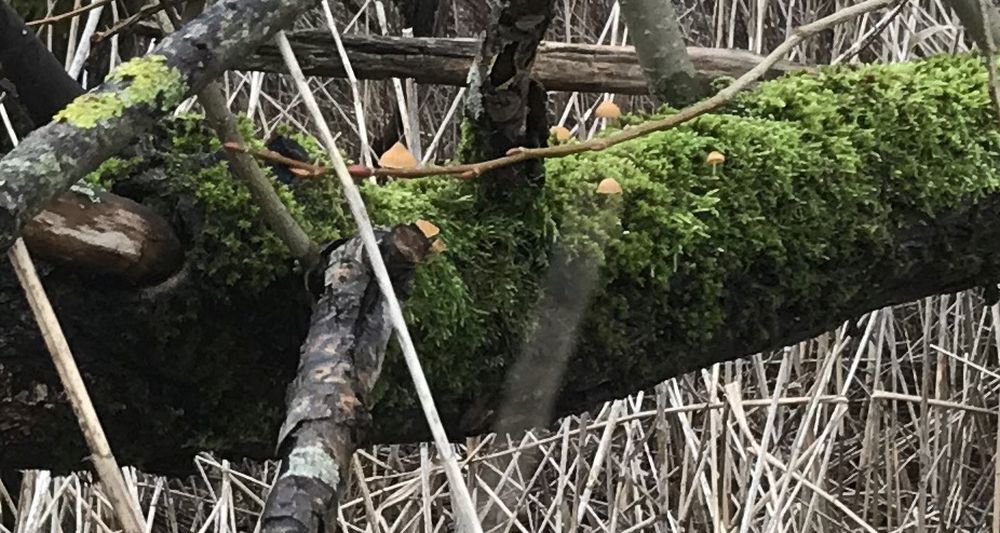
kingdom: Fungi
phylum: Basidiomycota
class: Agaricomycetes
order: Agaricales
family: Hymenogastraceae
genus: Galerina
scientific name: Galerina
